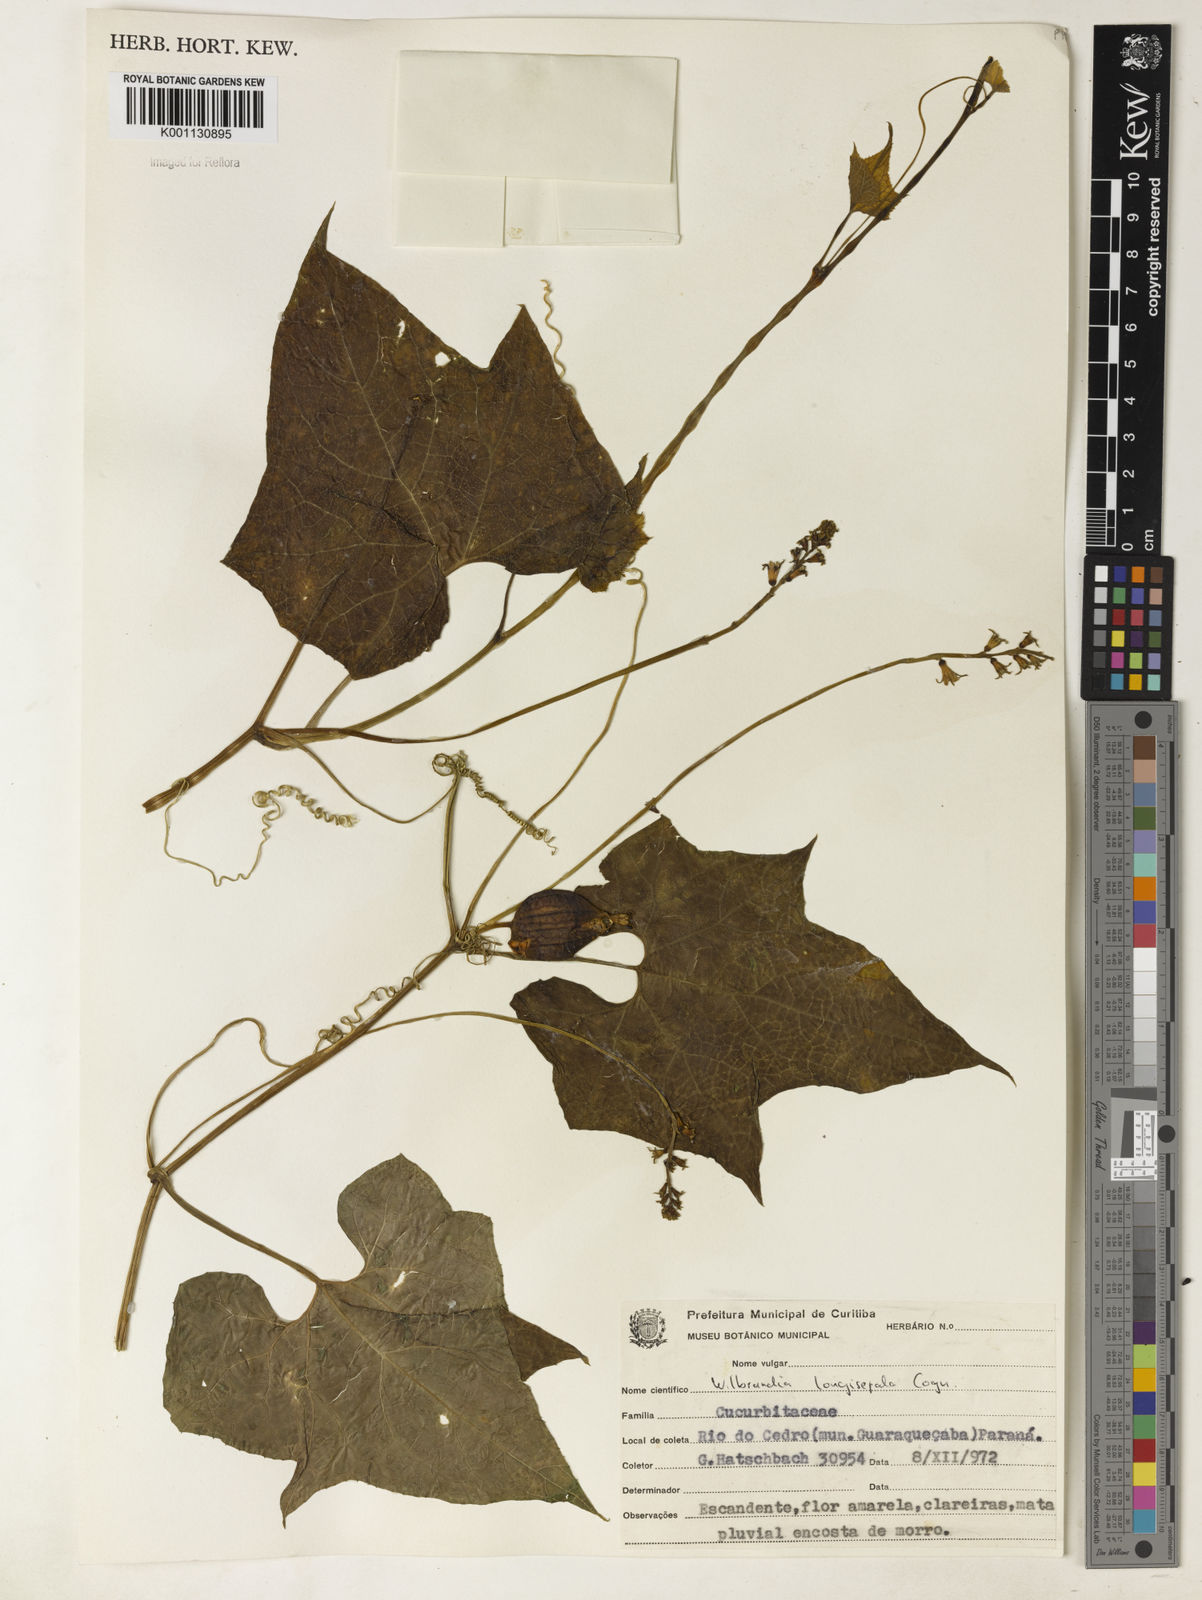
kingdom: Plantae
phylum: Tracheophyta
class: Magnoliopsida
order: Cucurbitales
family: Cucurbitaceae
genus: Wilbrandia
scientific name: Wilbrandia longisepala
